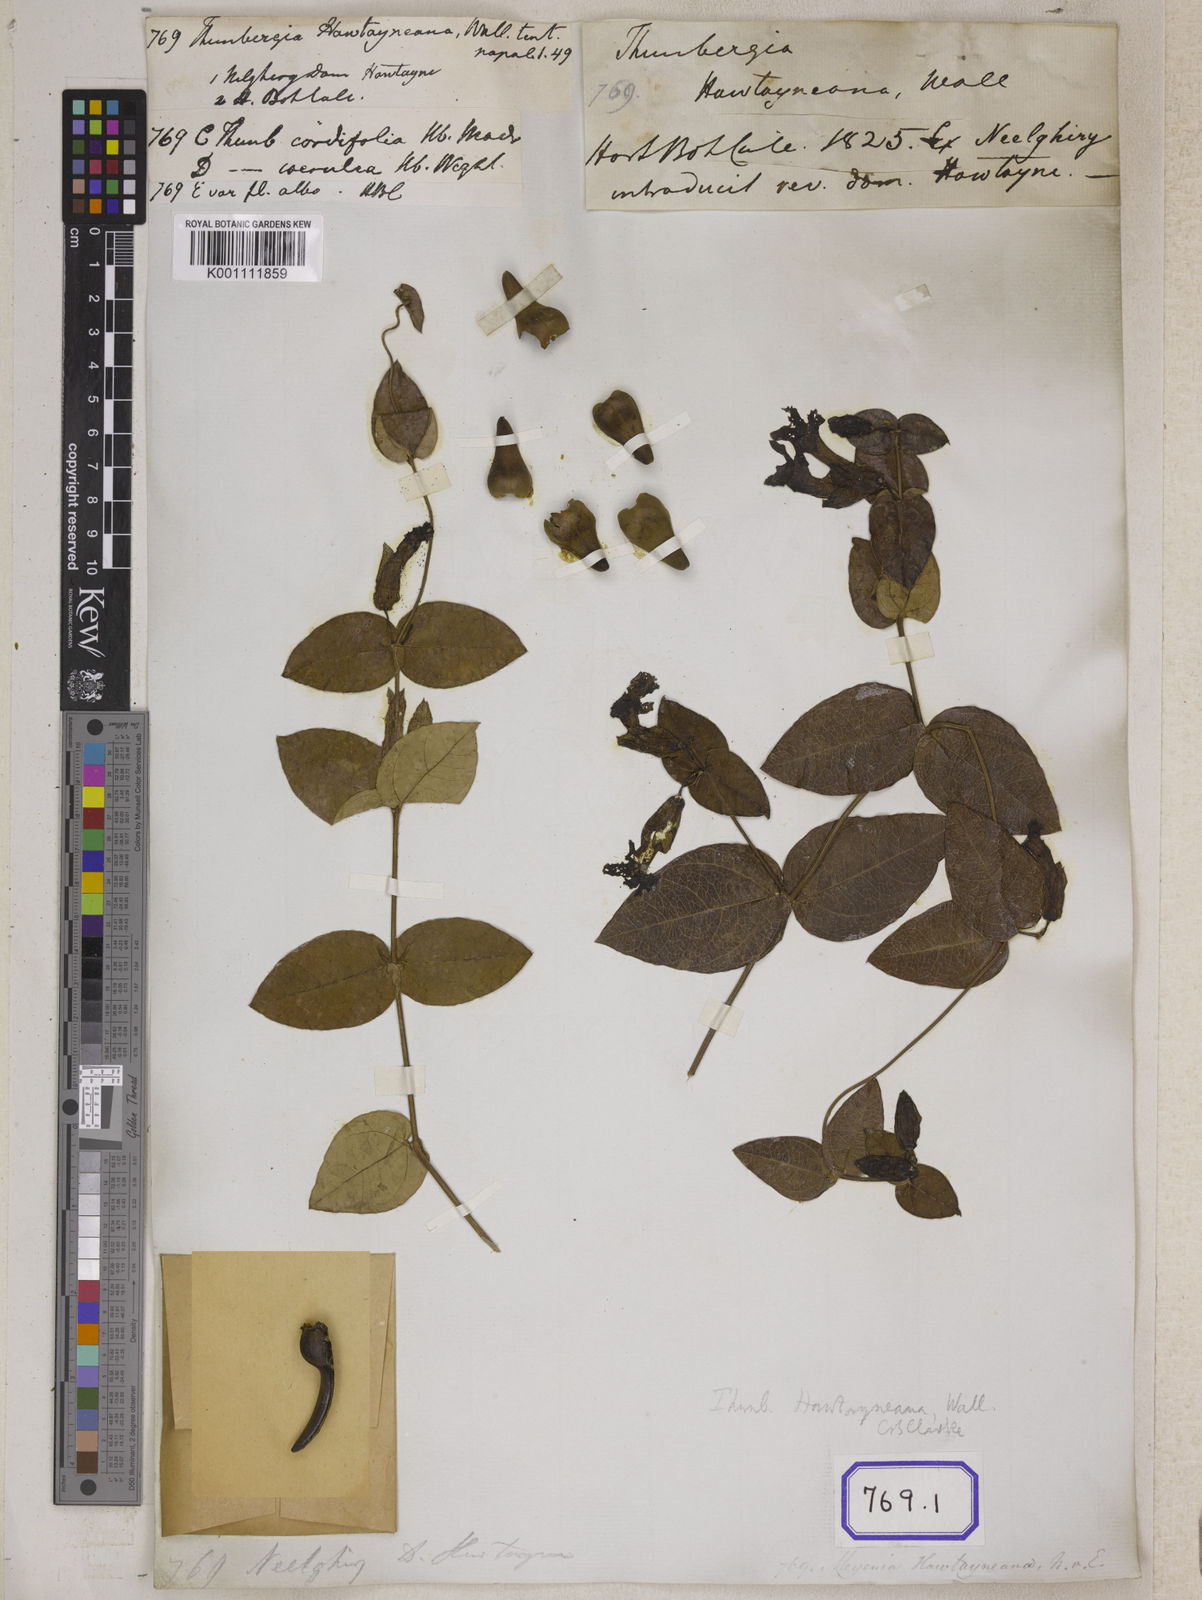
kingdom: Plantae
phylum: Tracheophyta
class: Magnoliopsida
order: Lamiales
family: Acanthaceae
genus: Meyenia
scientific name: Meyenia hawtayneana
